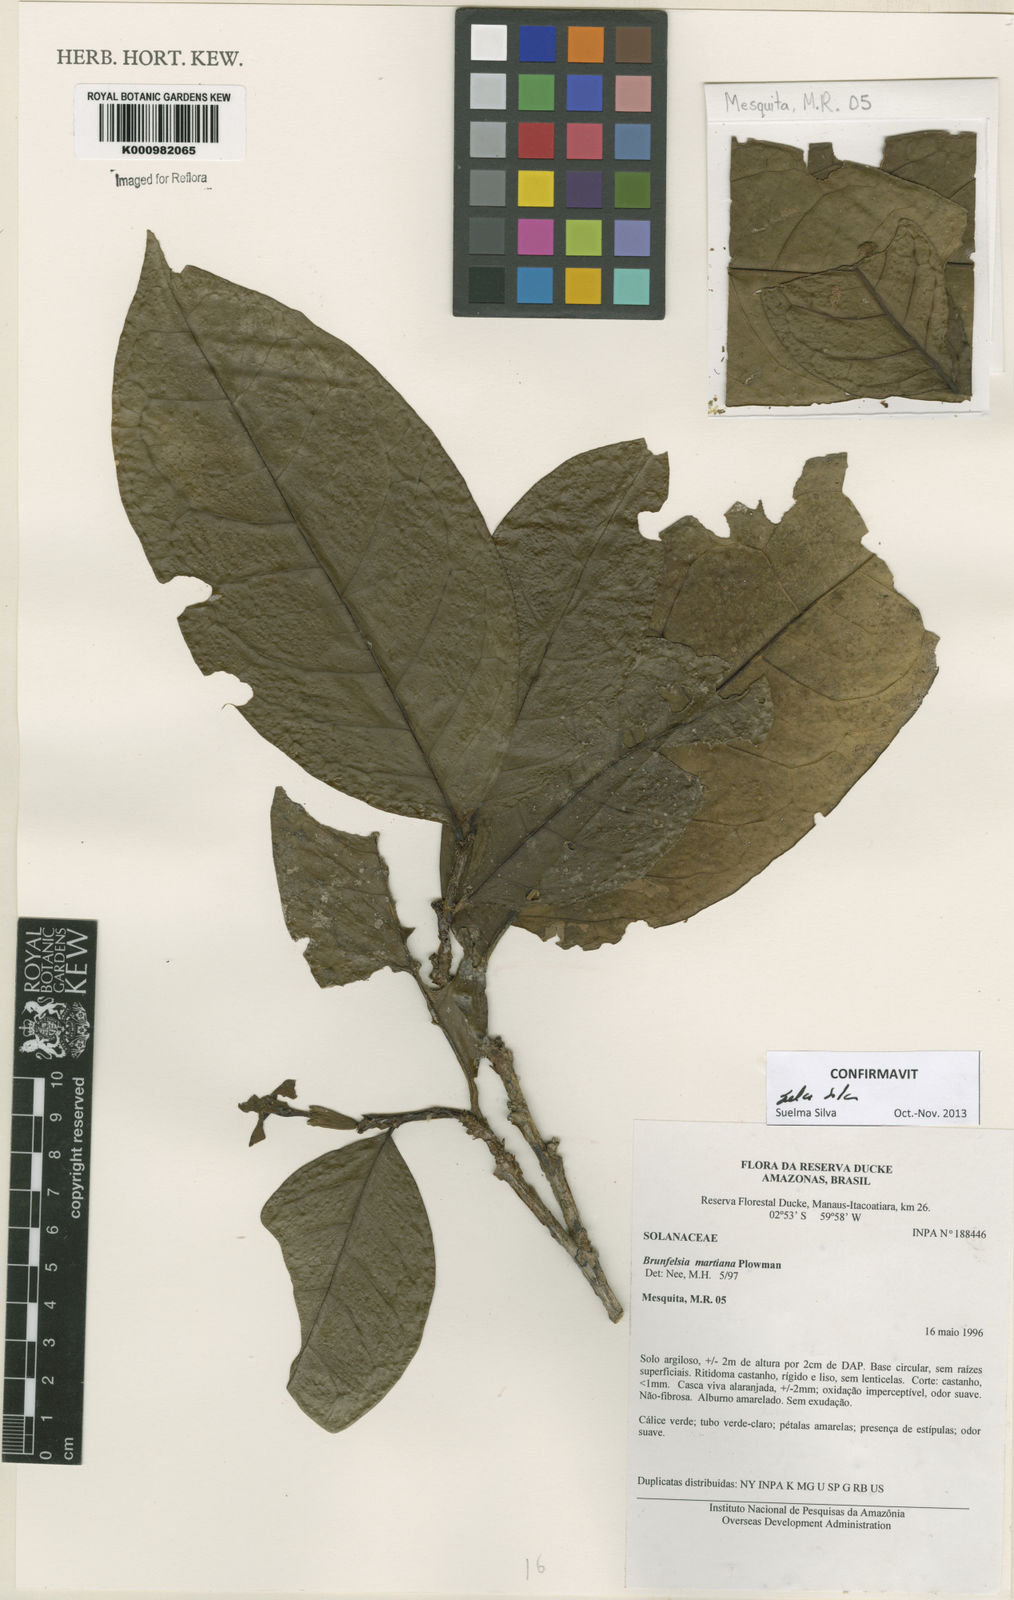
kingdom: Plantae
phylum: Tracheophyta
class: Magnoliopsida
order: Solanales
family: Solanaceae
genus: Brunfelsia
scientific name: Brunfelsia martiana
